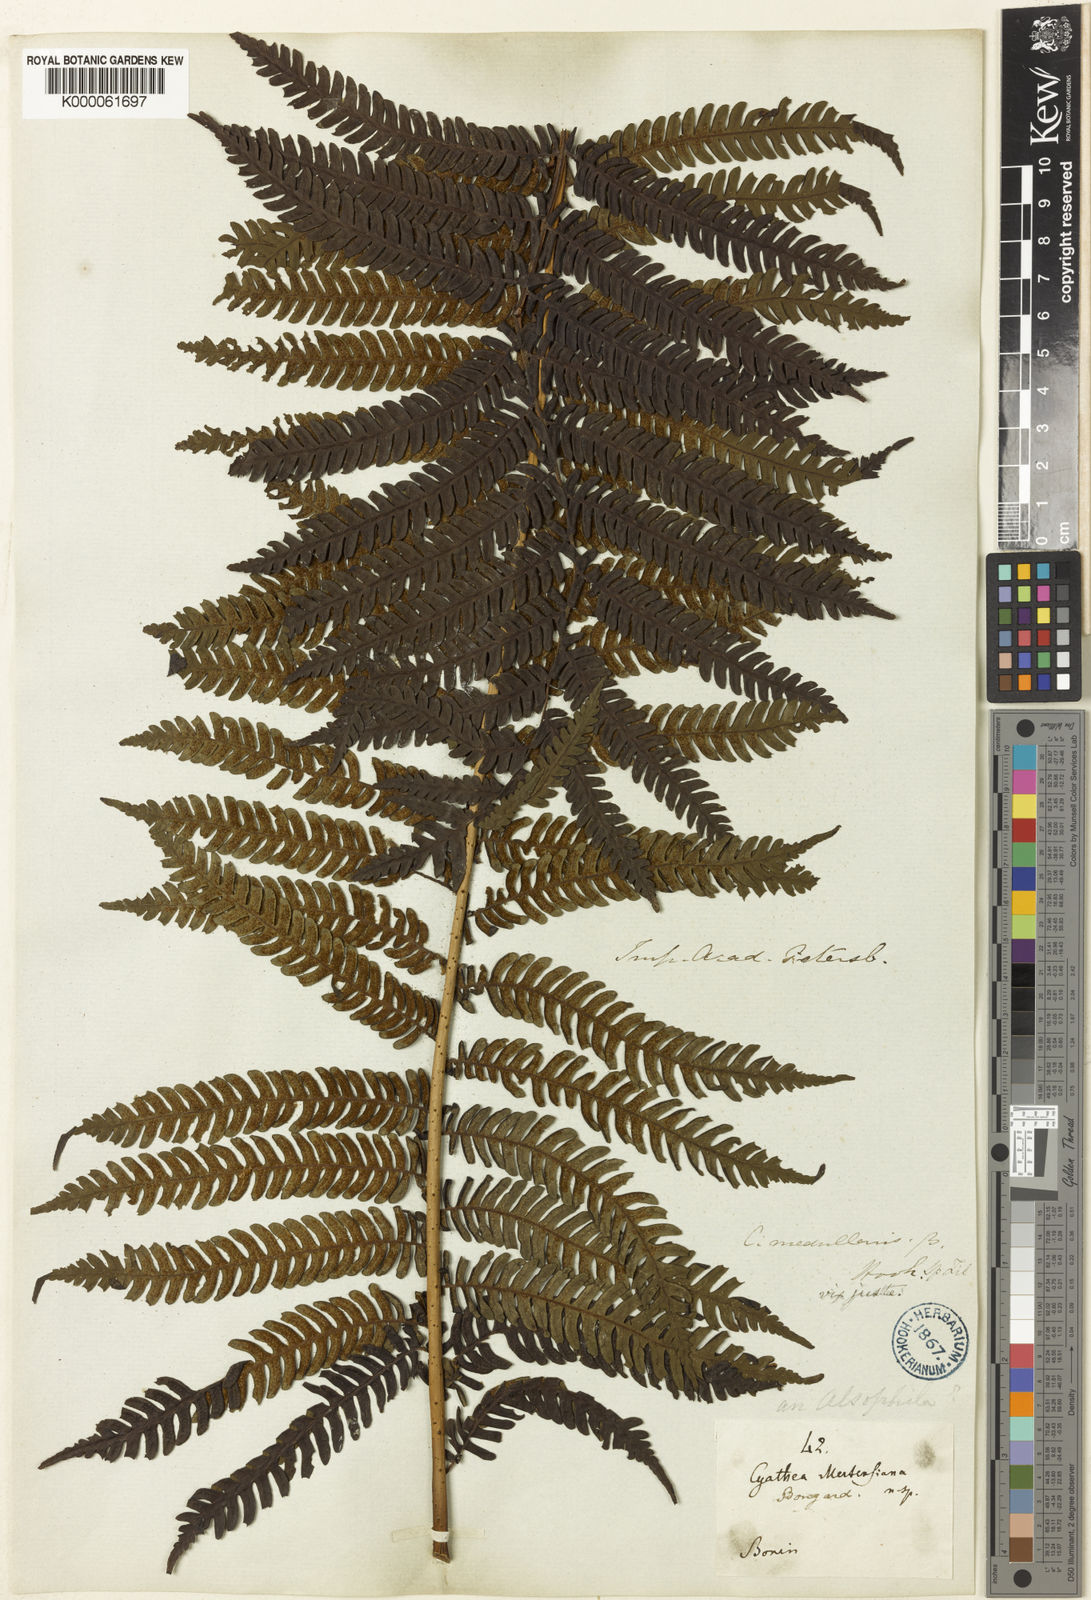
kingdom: Plantae
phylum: Tracheophyta
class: Polypodiopsida
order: Cyatheales
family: Cyatheaceae
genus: Sphaeropteris
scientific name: Sphaeropteris mertensiana
